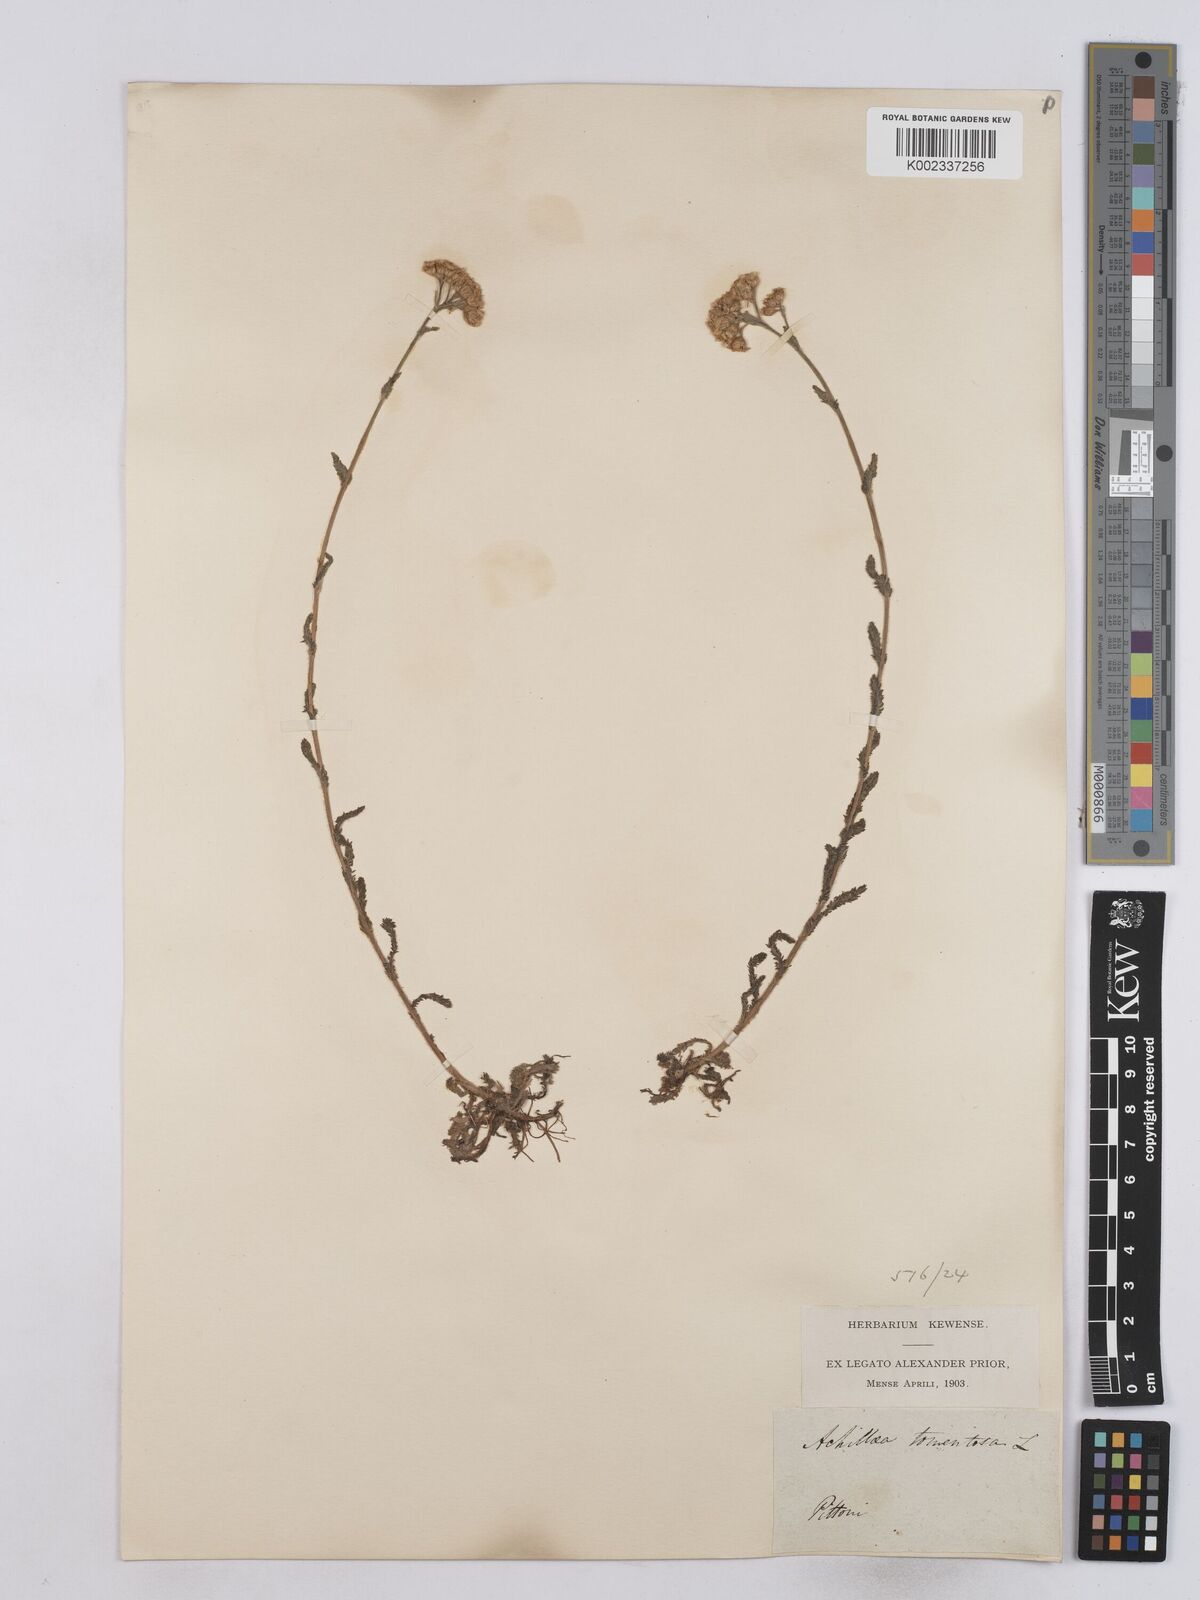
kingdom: Plantae
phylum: Tracheophyta
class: Magnoliopsida
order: Asterales
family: Asteraceae
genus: Achillea
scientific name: Achillea tomentosa
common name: Yellow milfoil
